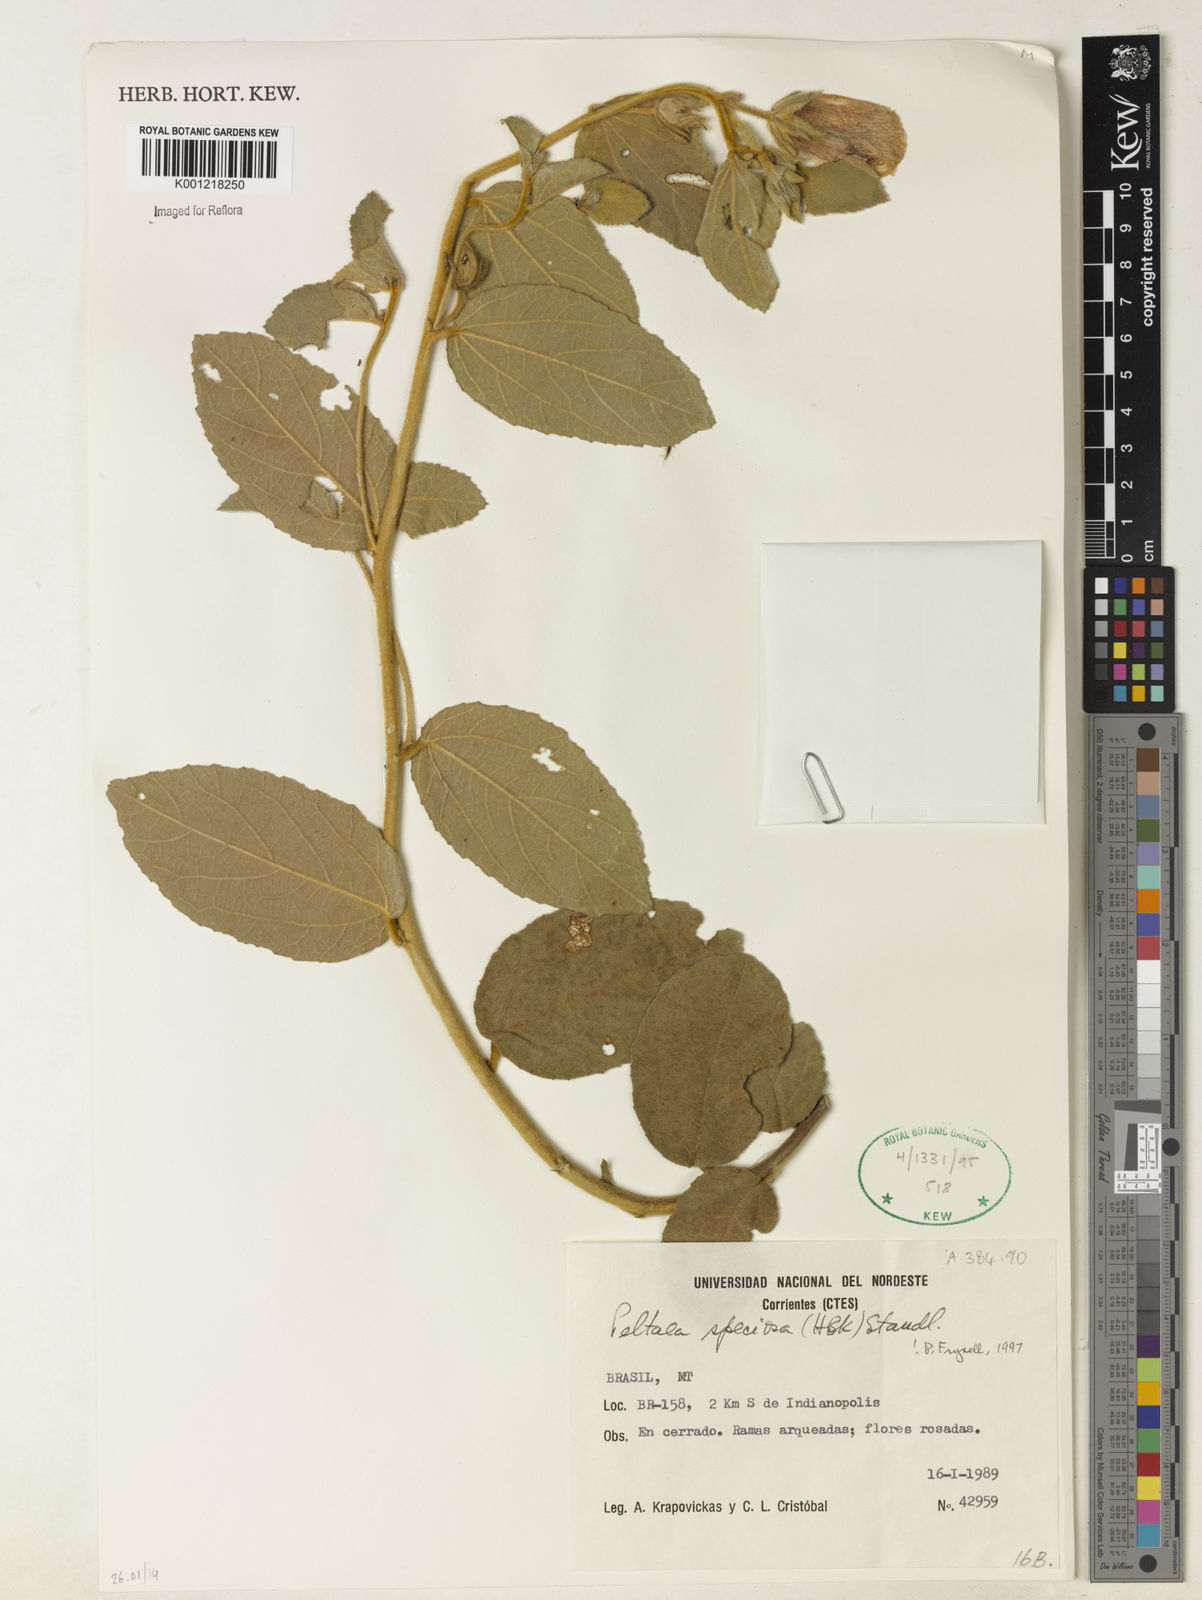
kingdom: Plantae
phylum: Tracheophyta
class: Magnoliopsida
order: Malvales
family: Malvaceae
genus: Peltaea
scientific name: Peltaea speciosa
